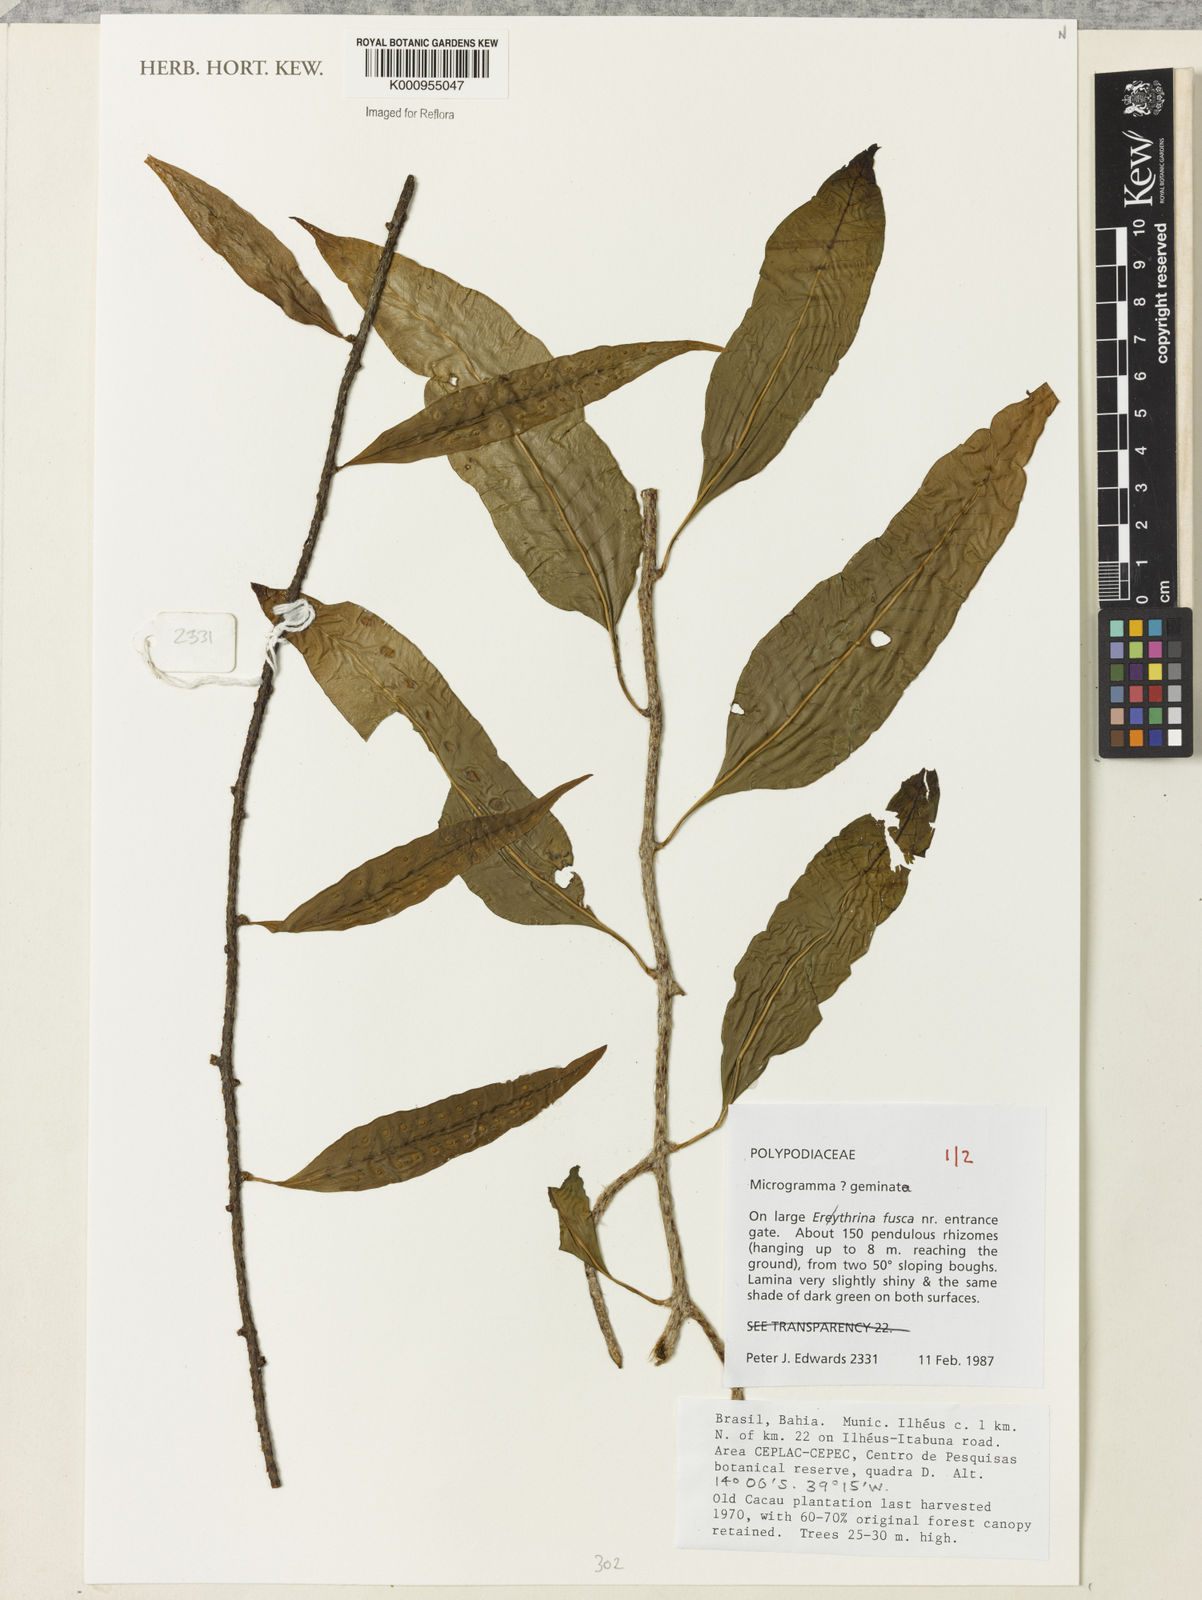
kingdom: Plantae
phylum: Tracheophyta
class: Polypodiopsida
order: Polypodiales
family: Polypodiaceae
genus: Microgramma
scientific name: Microgramma geminata
